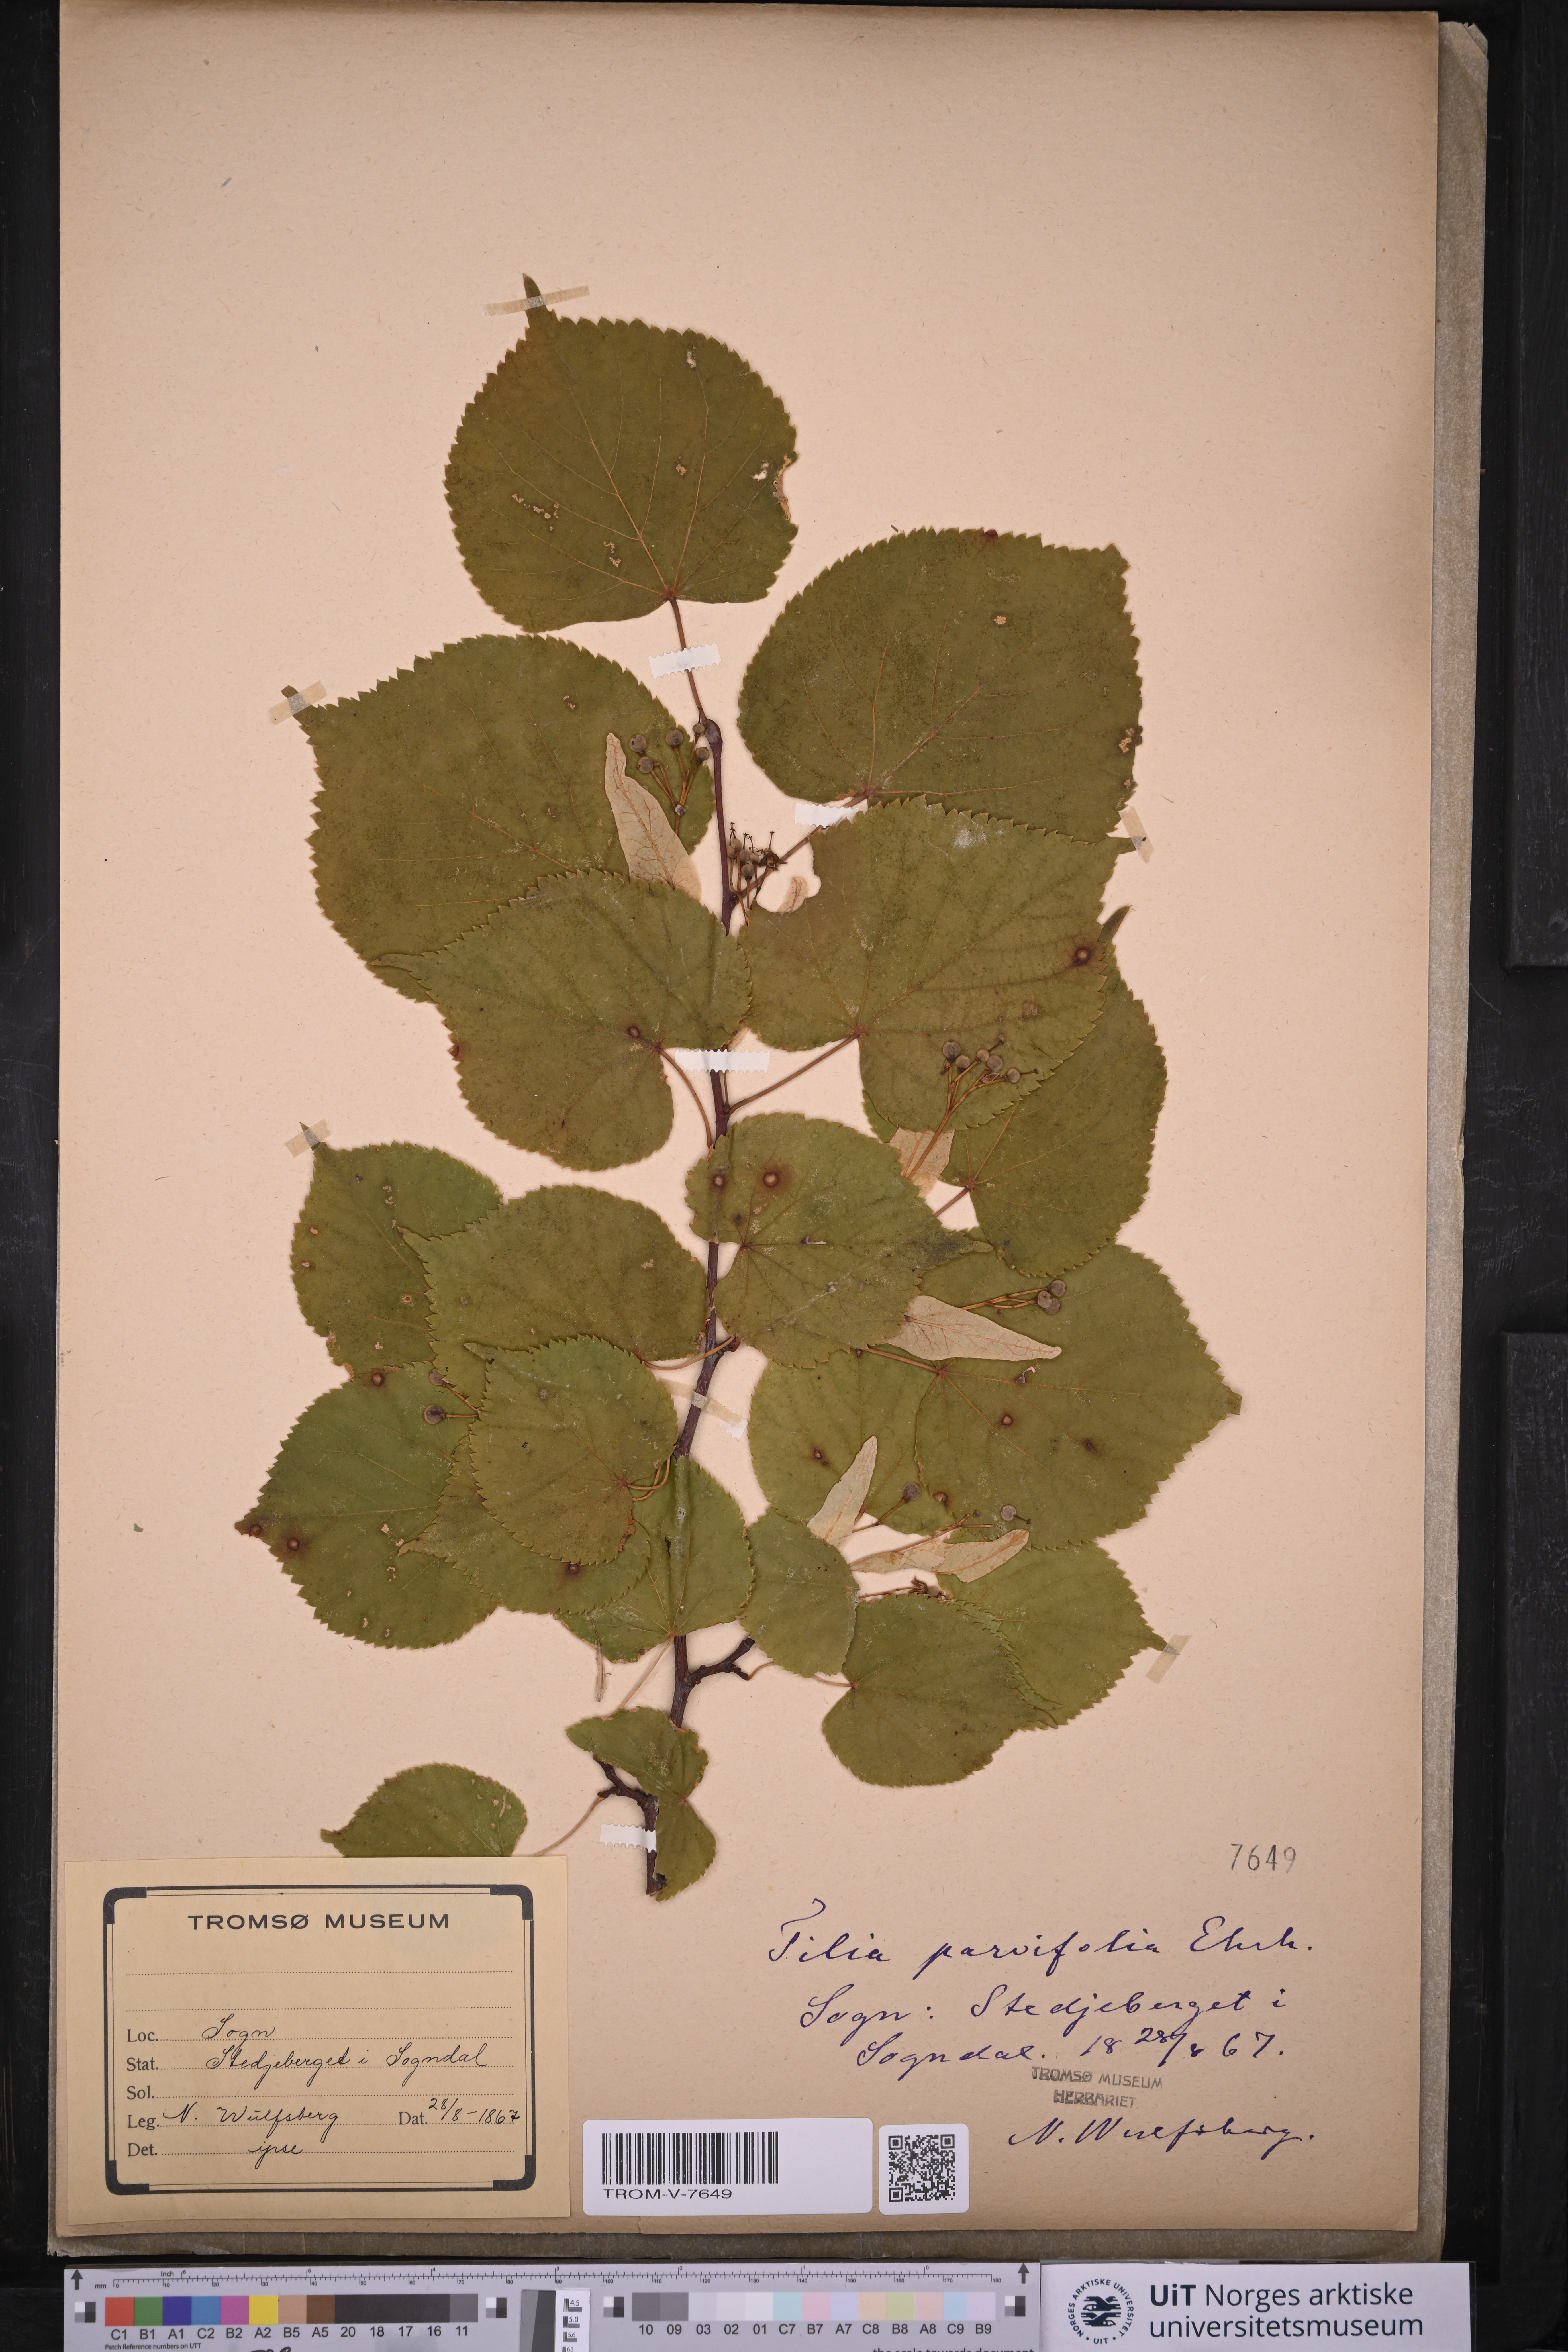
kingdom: Plantae
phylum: Tracheophyta
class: Magnoliopsida
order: Malvales
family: Malvaceae
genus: Tilia
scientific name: Tilia cordata
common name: Small-leaved lime
